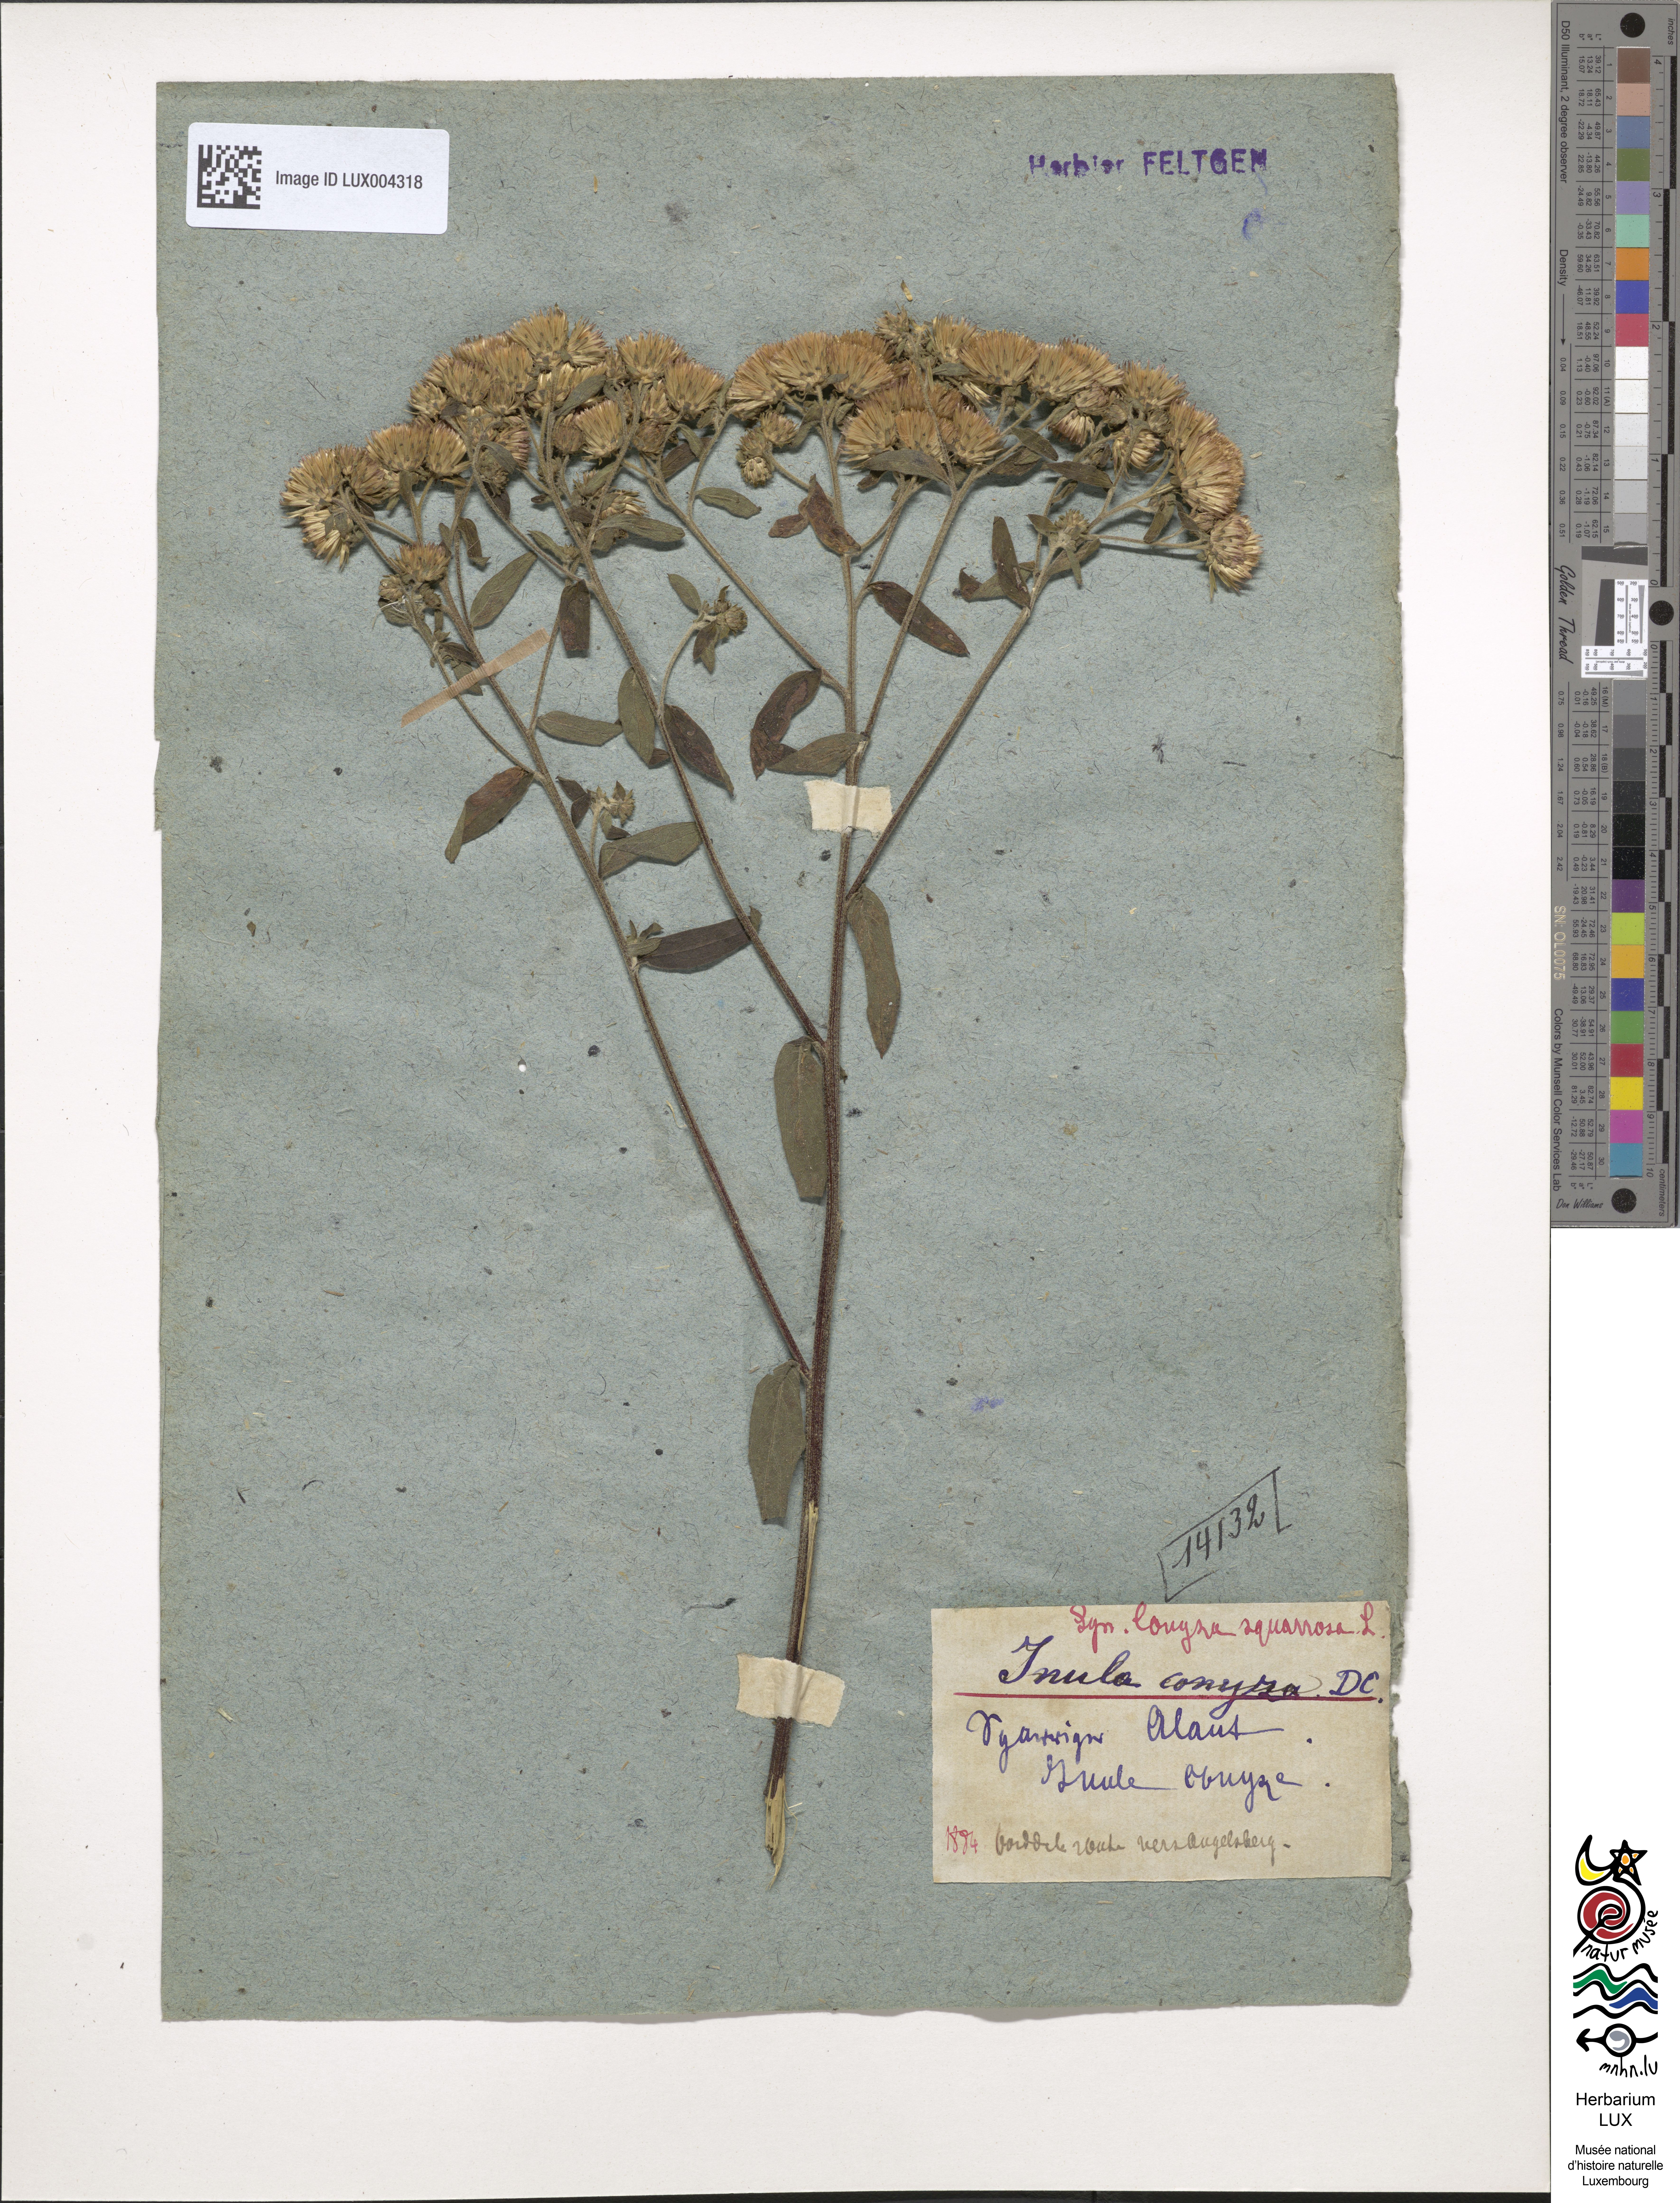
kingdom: Plantae
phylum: Tracheophyta
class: Magnoliopsida
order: Asterales
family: Asteraceae
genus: Pentanema
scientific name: Pentanema squarrosum
